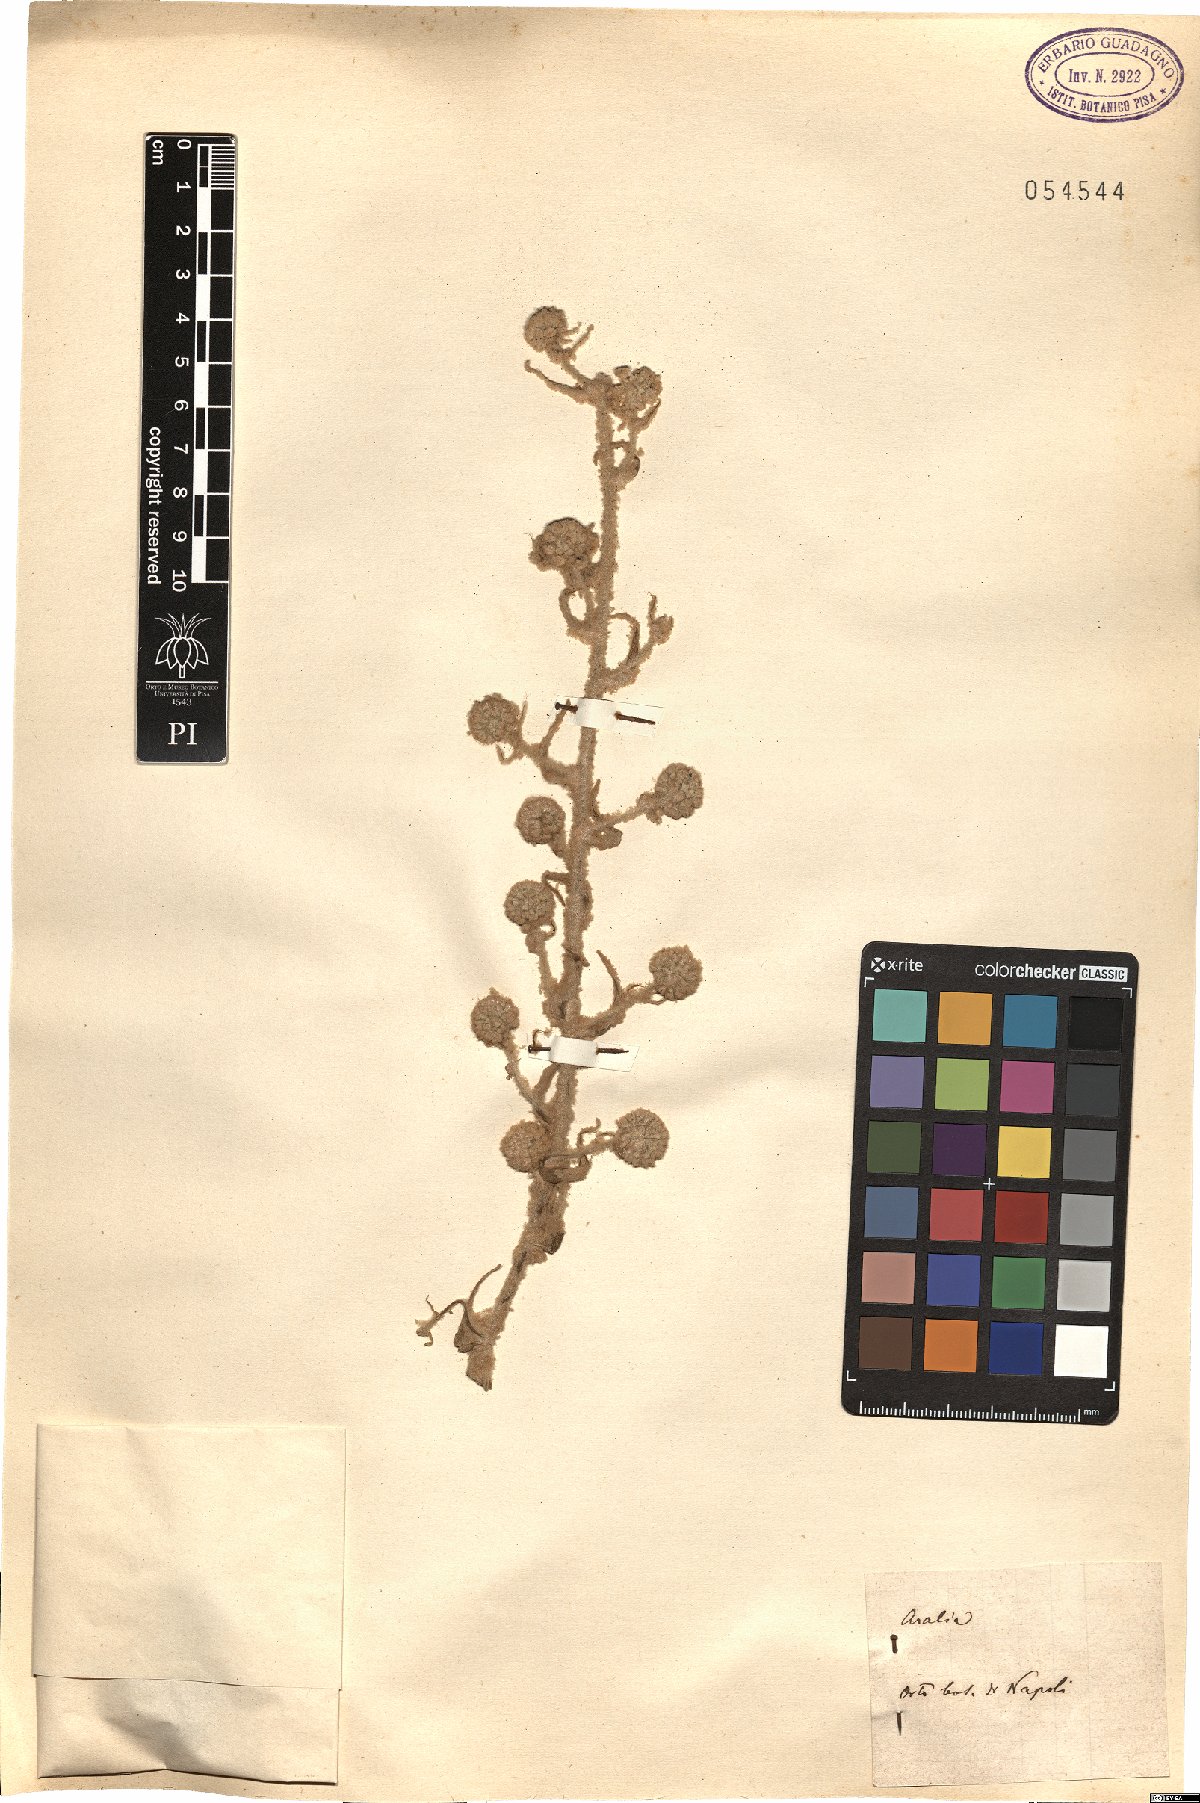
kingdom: Plantae
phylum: Tracheophyta
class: Magnoliopsida
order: Apiales
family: Araliaceae
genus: Aralia
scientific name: Aralia
